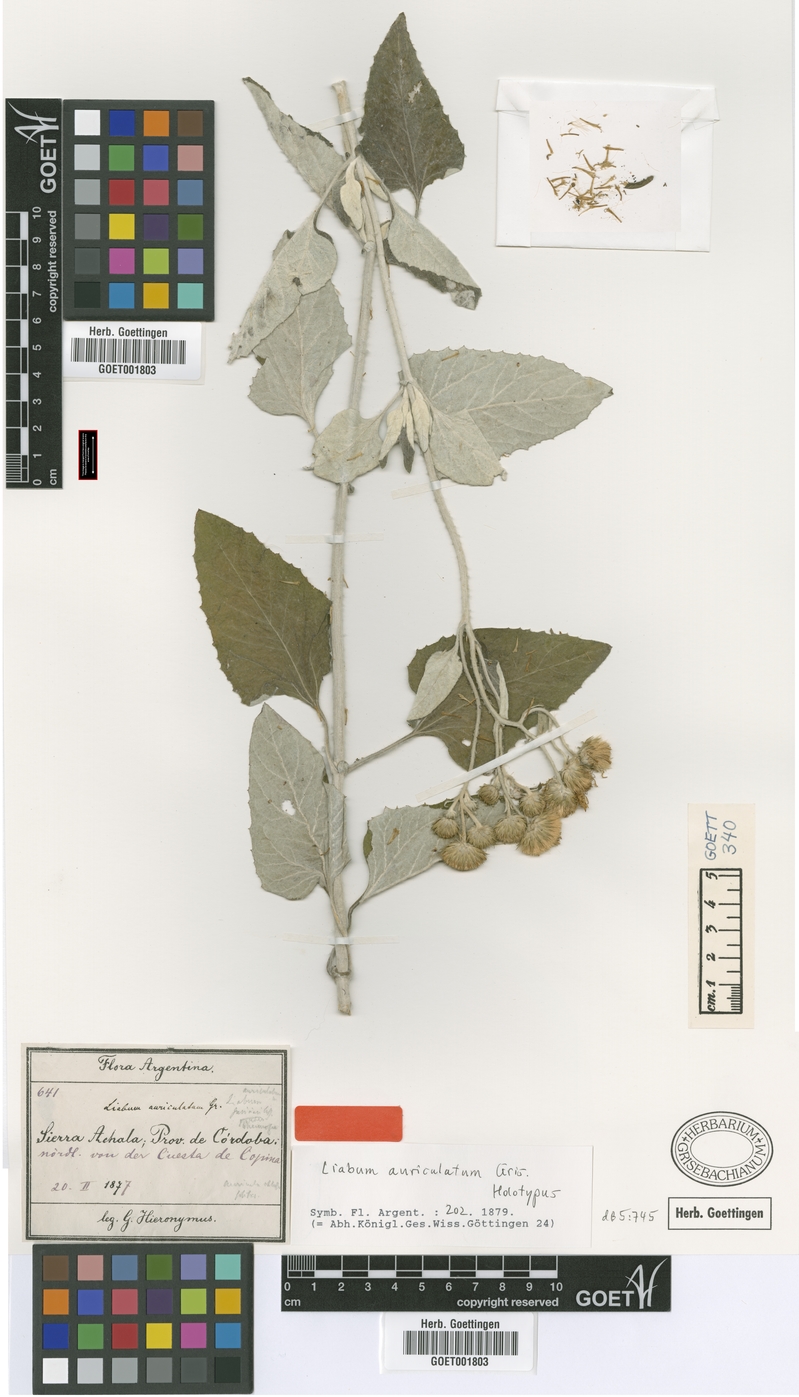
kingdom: Plantae
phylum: Tracheophyta
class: Magnoliopsida
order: Asterales
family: Asteraceae
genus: Microliabum
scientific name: Microliabum candidum
